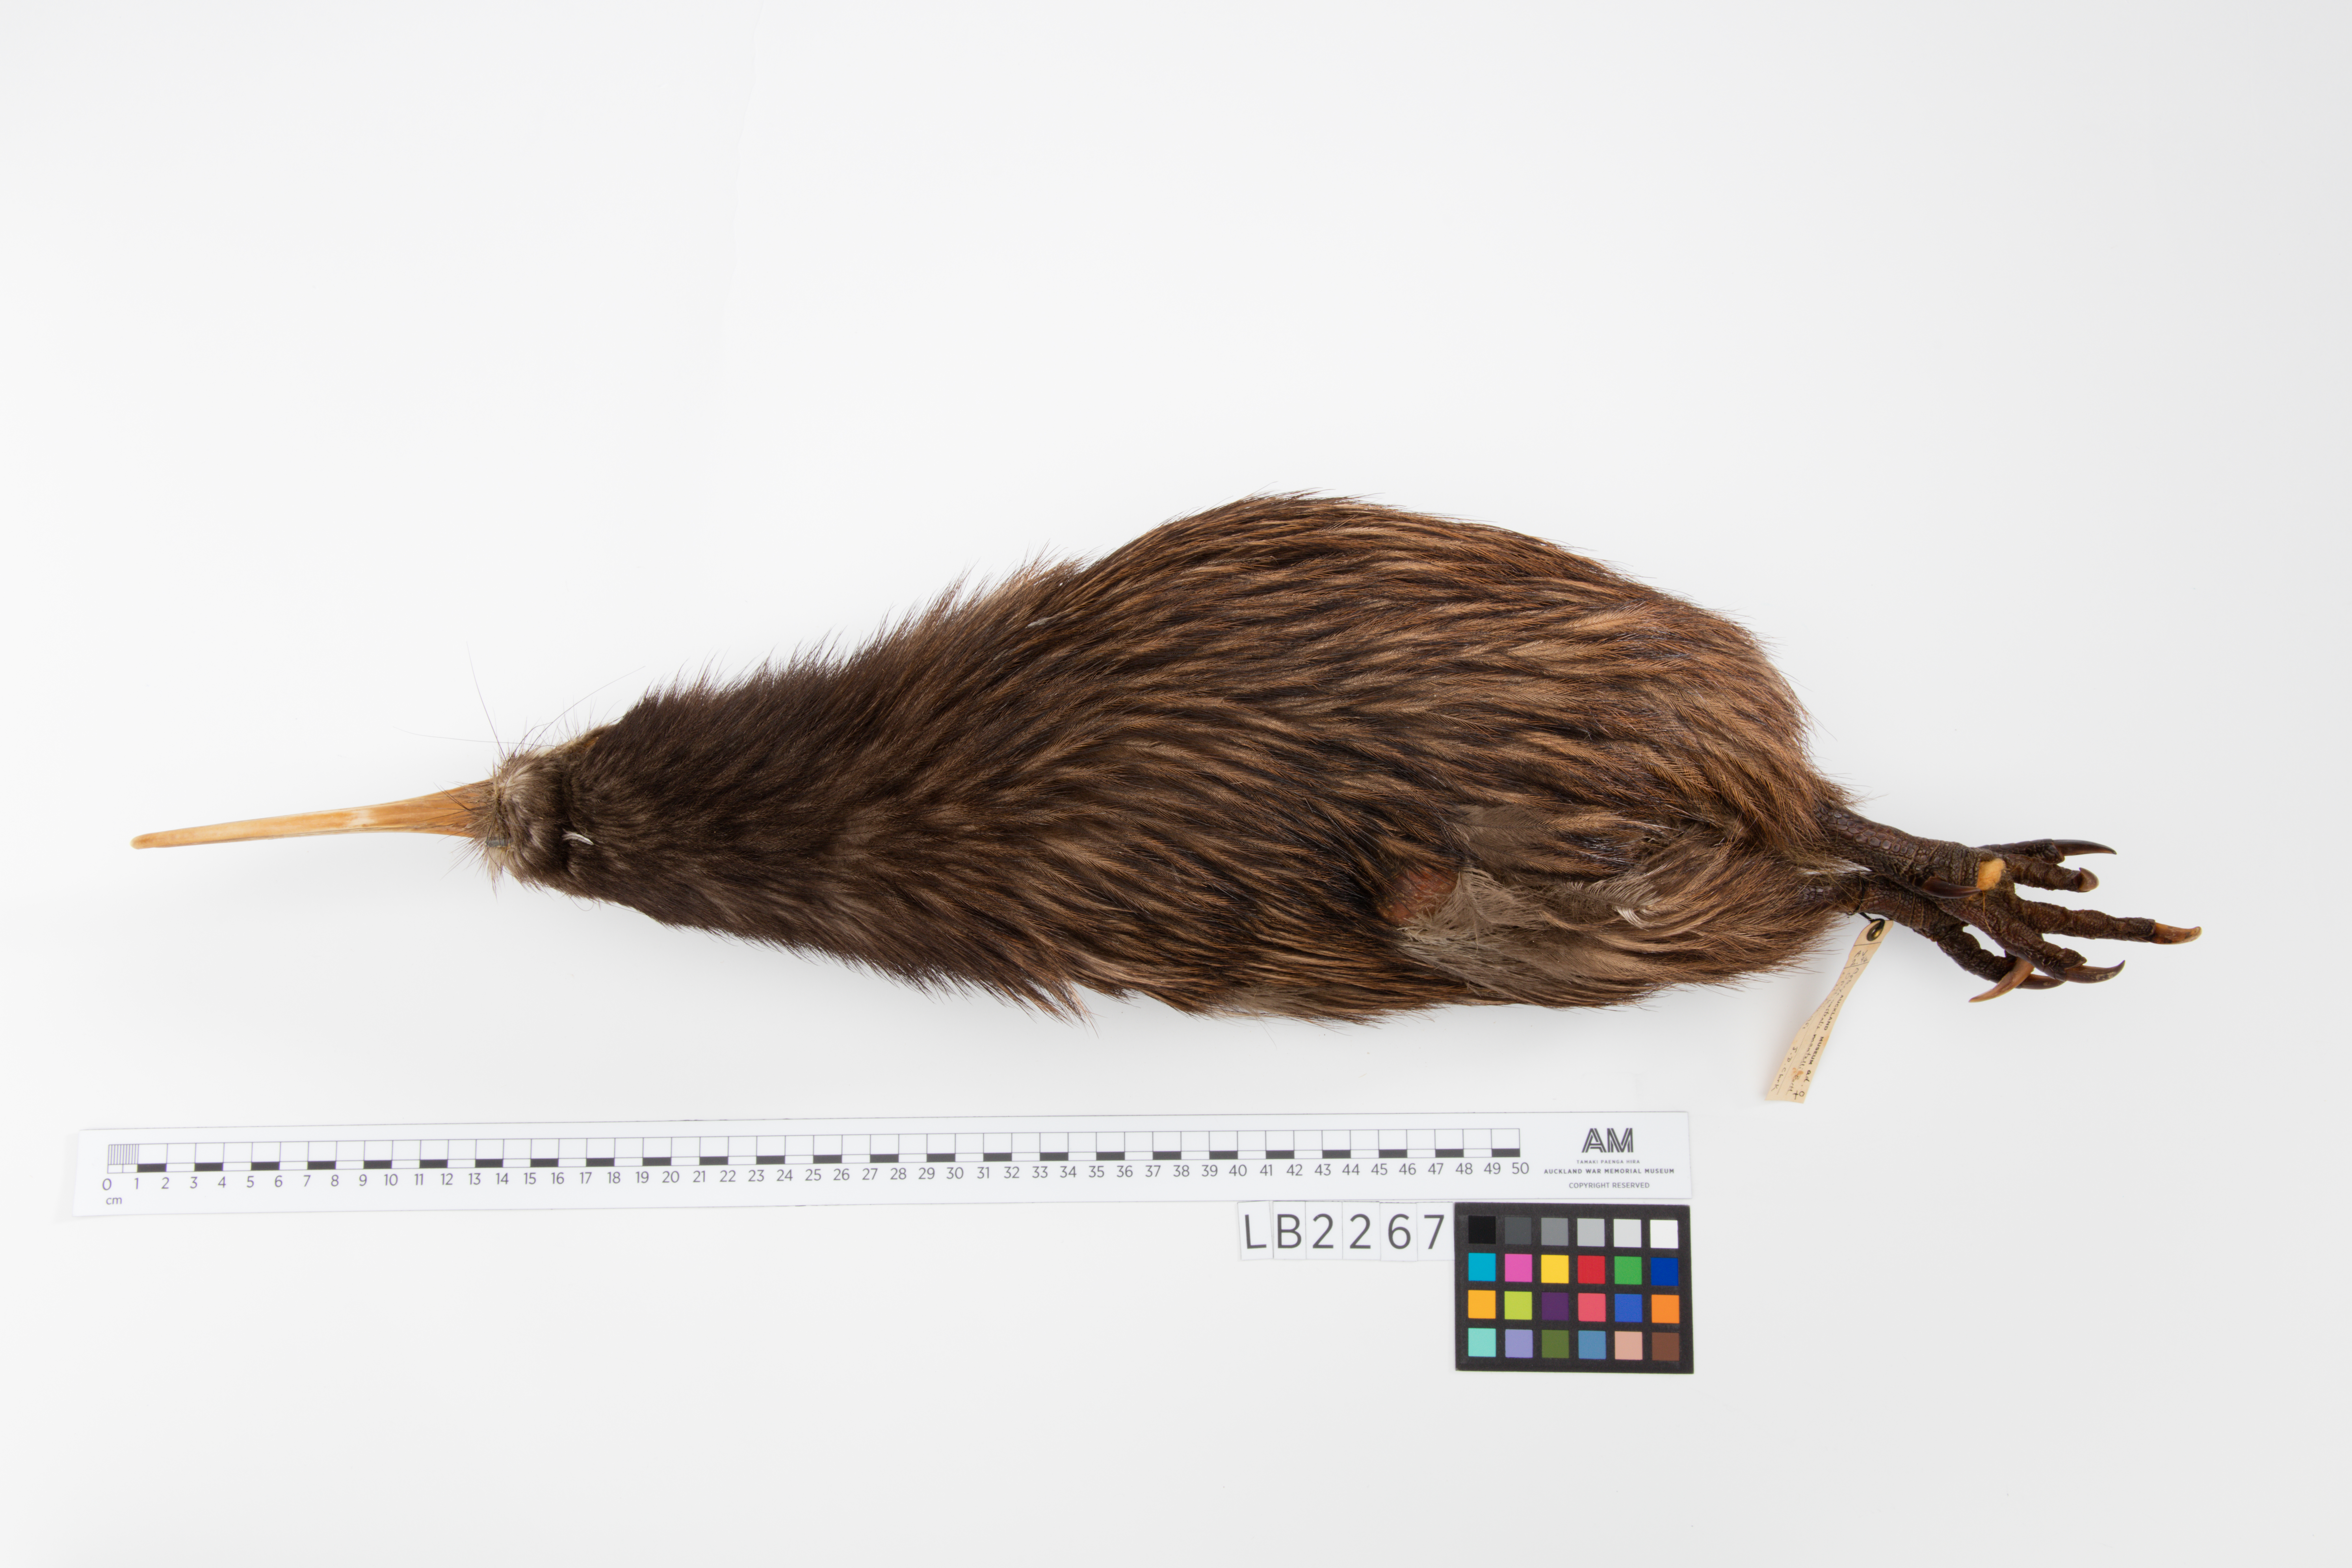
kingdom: Animalia
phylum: Chordata
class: Aves
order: Apterygiformes
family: Apterygidae
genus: Apteryx
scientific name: Apteryx mantelli
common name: North island brown kiwi
